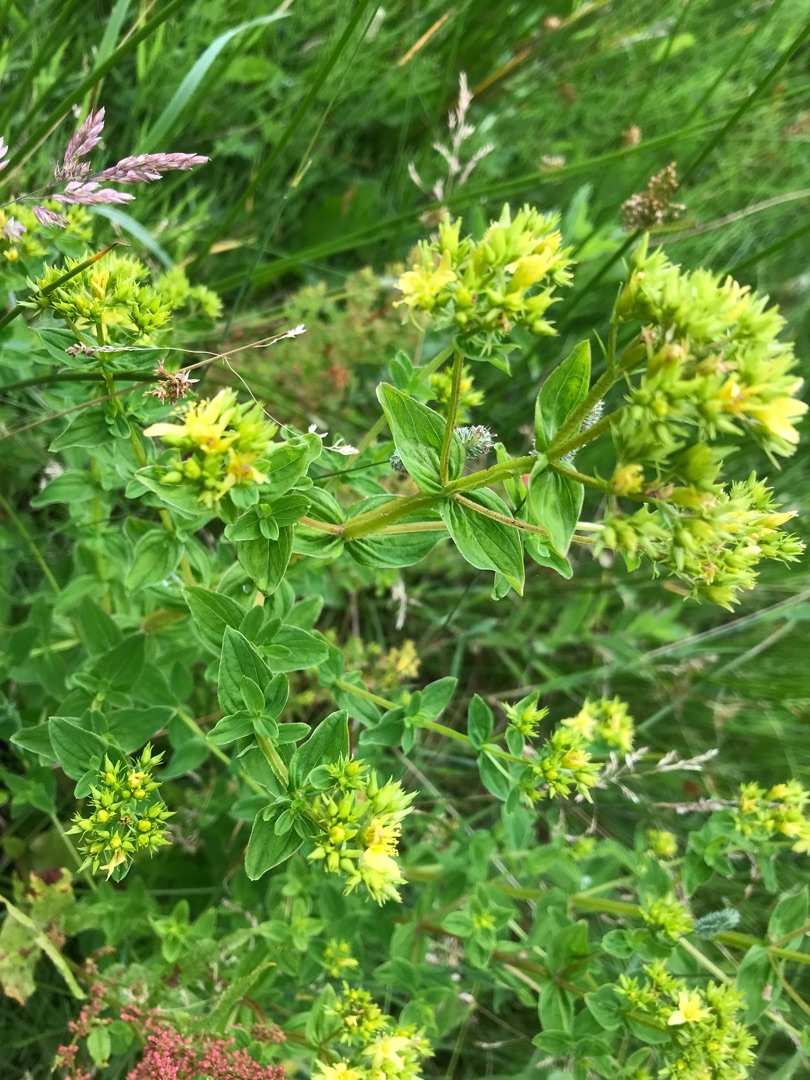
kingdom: Plantae
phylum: Tracheophyta
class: Magnoliopsida
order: Malpighiales
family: Hypericaceae
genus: Hypericum
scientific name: Hypericum tetrapterum
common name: Vinget perikon
